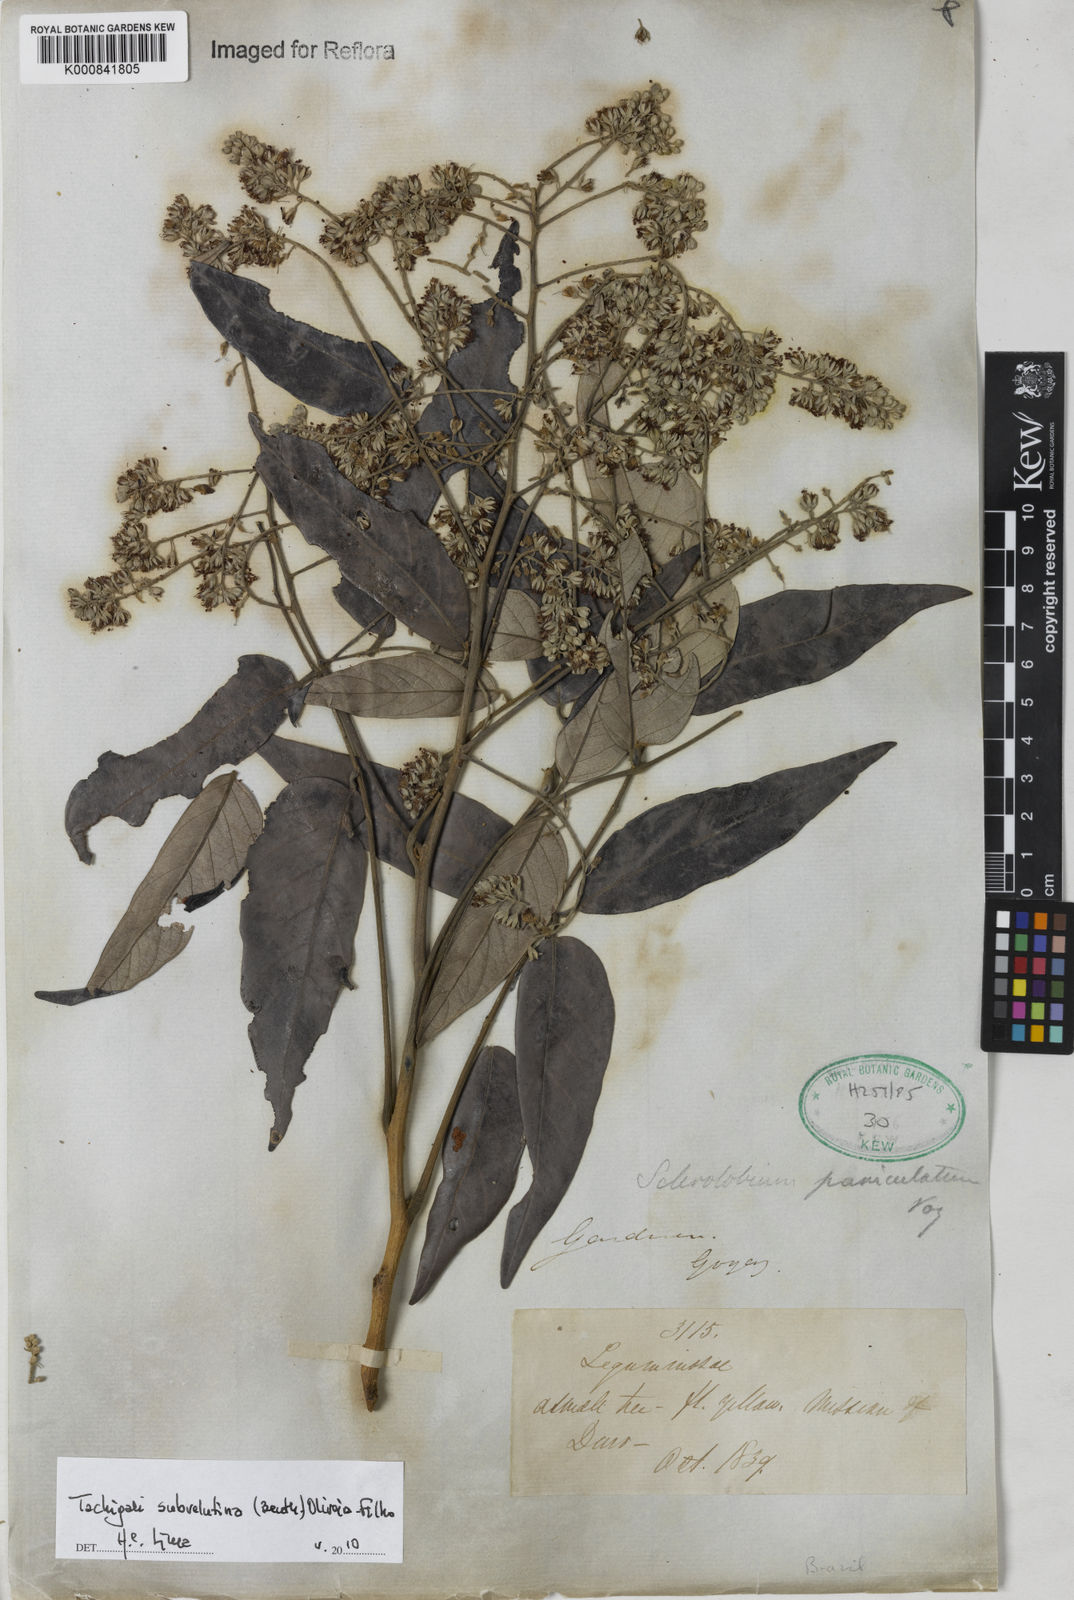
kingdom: Plantae
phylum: Tracheophyta
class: Magnoliopsida
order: Fabales
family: Fabaceae
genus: Tachigali
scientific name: Tachigali subvelutina
